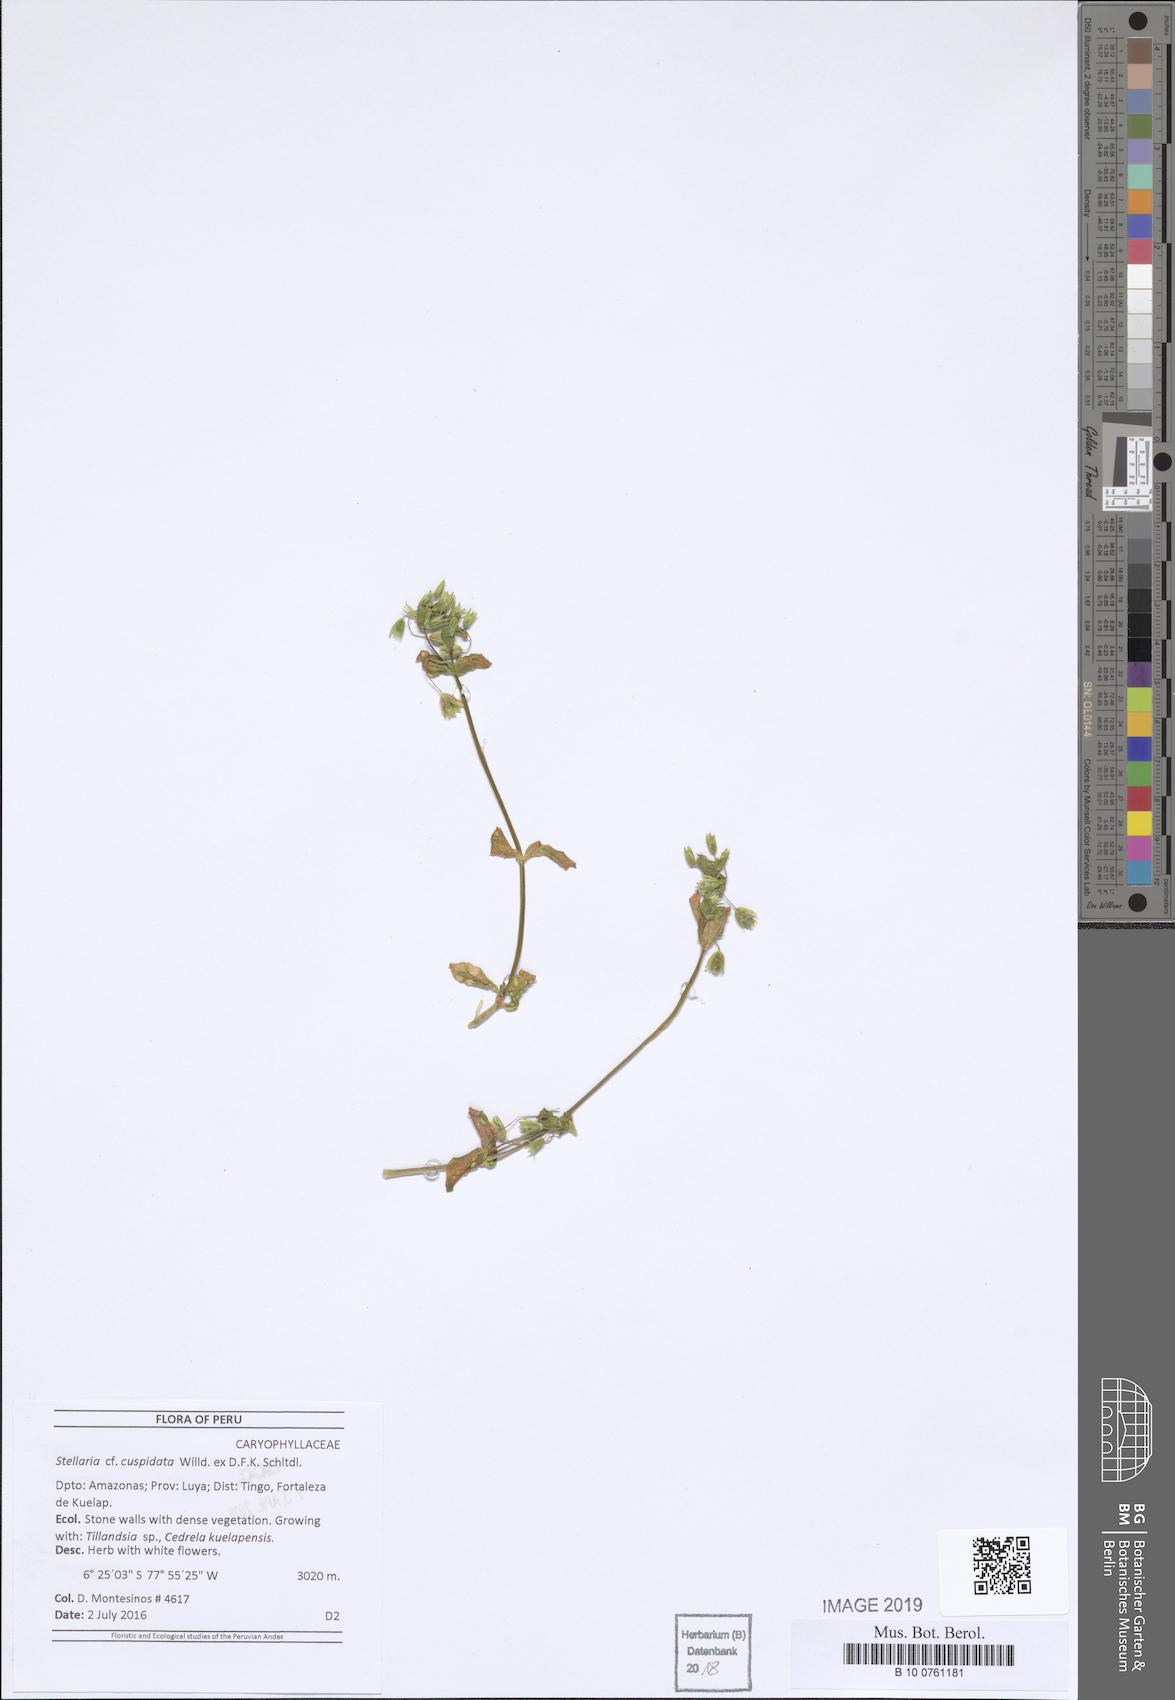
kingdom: Plantae
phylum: Tracheophyta
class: Magnoliopsida
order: Caryophyllales
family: Caryophyllaceae
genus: Stellaria
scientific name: Stellaria cuspidata
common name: Mexican chickweed
